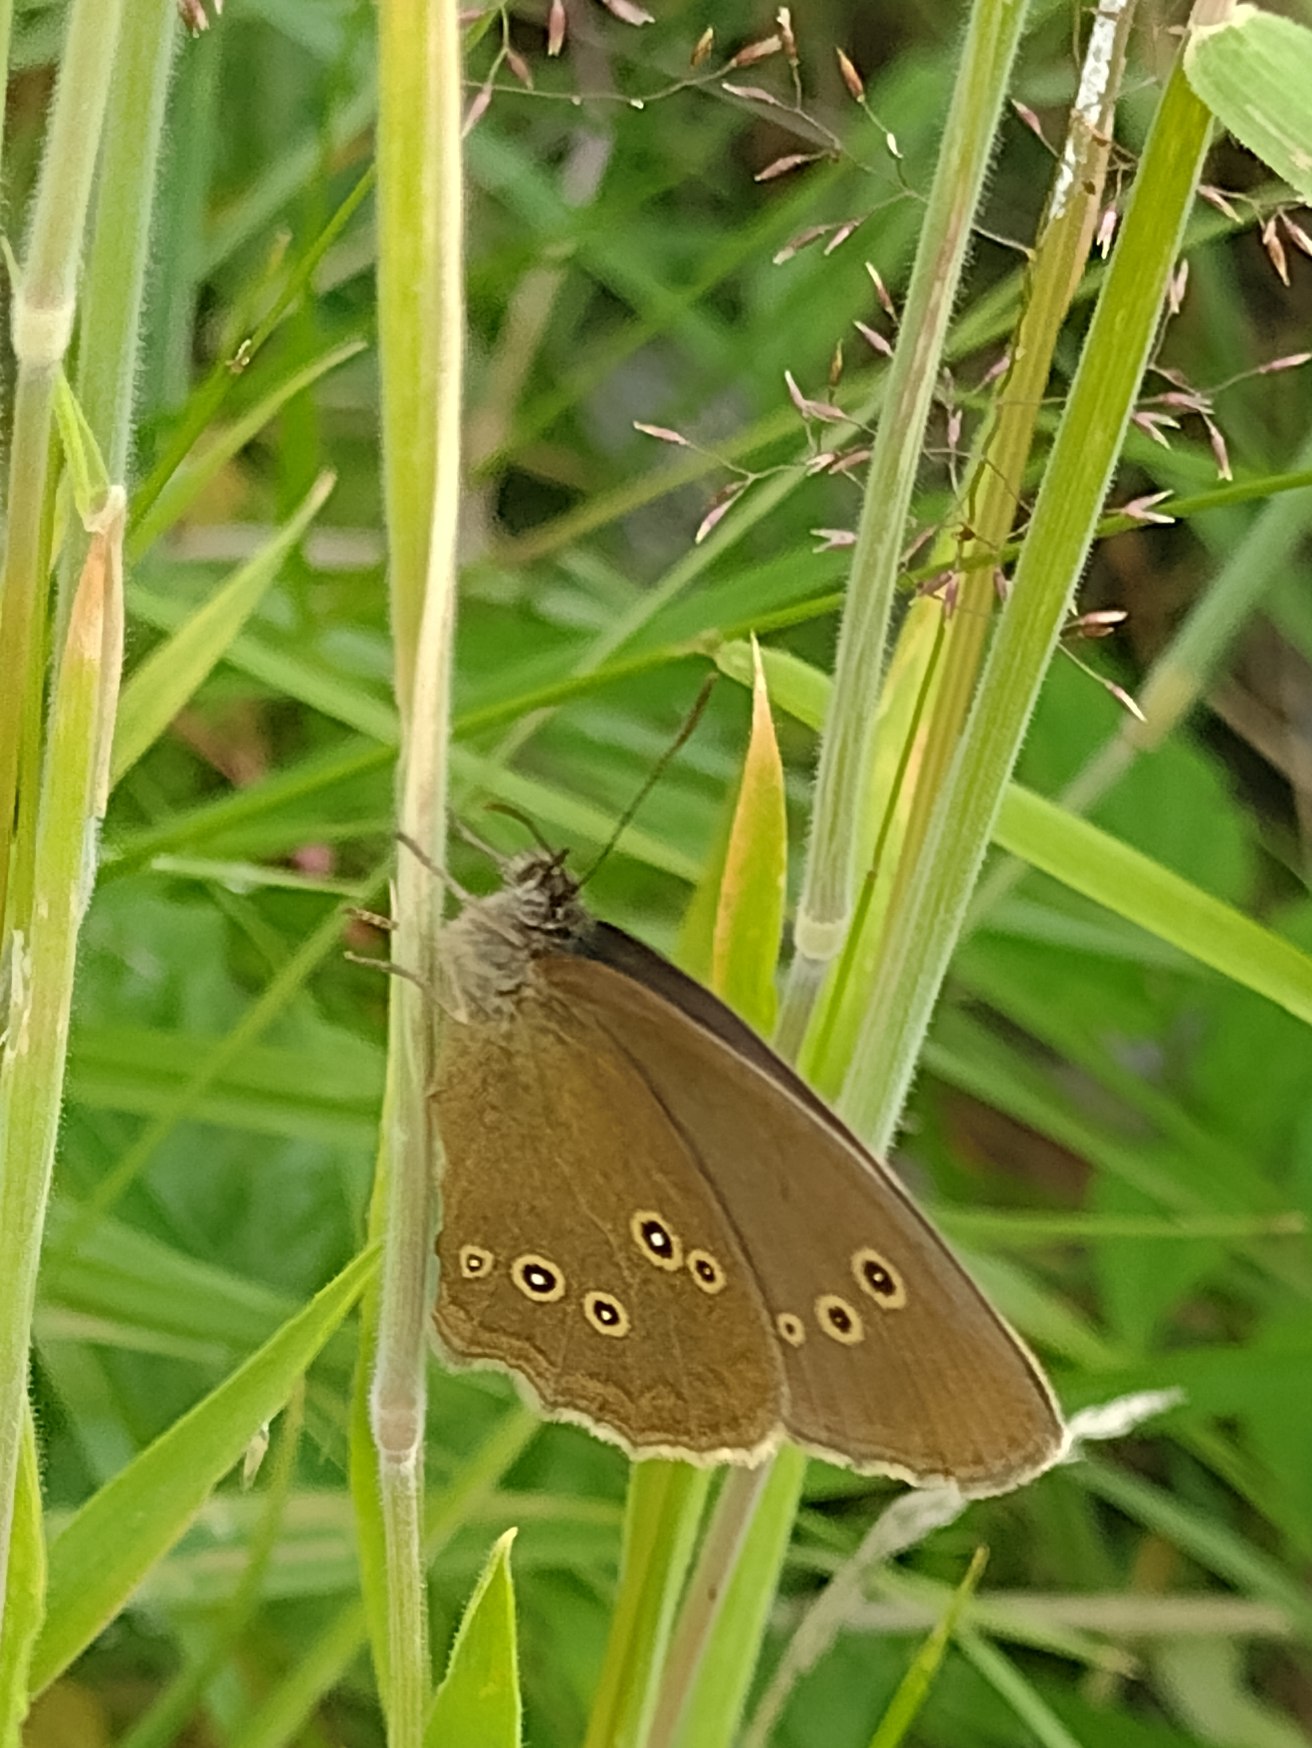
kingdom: Animalia
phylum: Arthropoda
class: Insecta
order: Lepidoptera
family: Nymphalidae
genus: Aphantopus
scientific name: Aphantopus hyperantus
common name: Engrandøje
